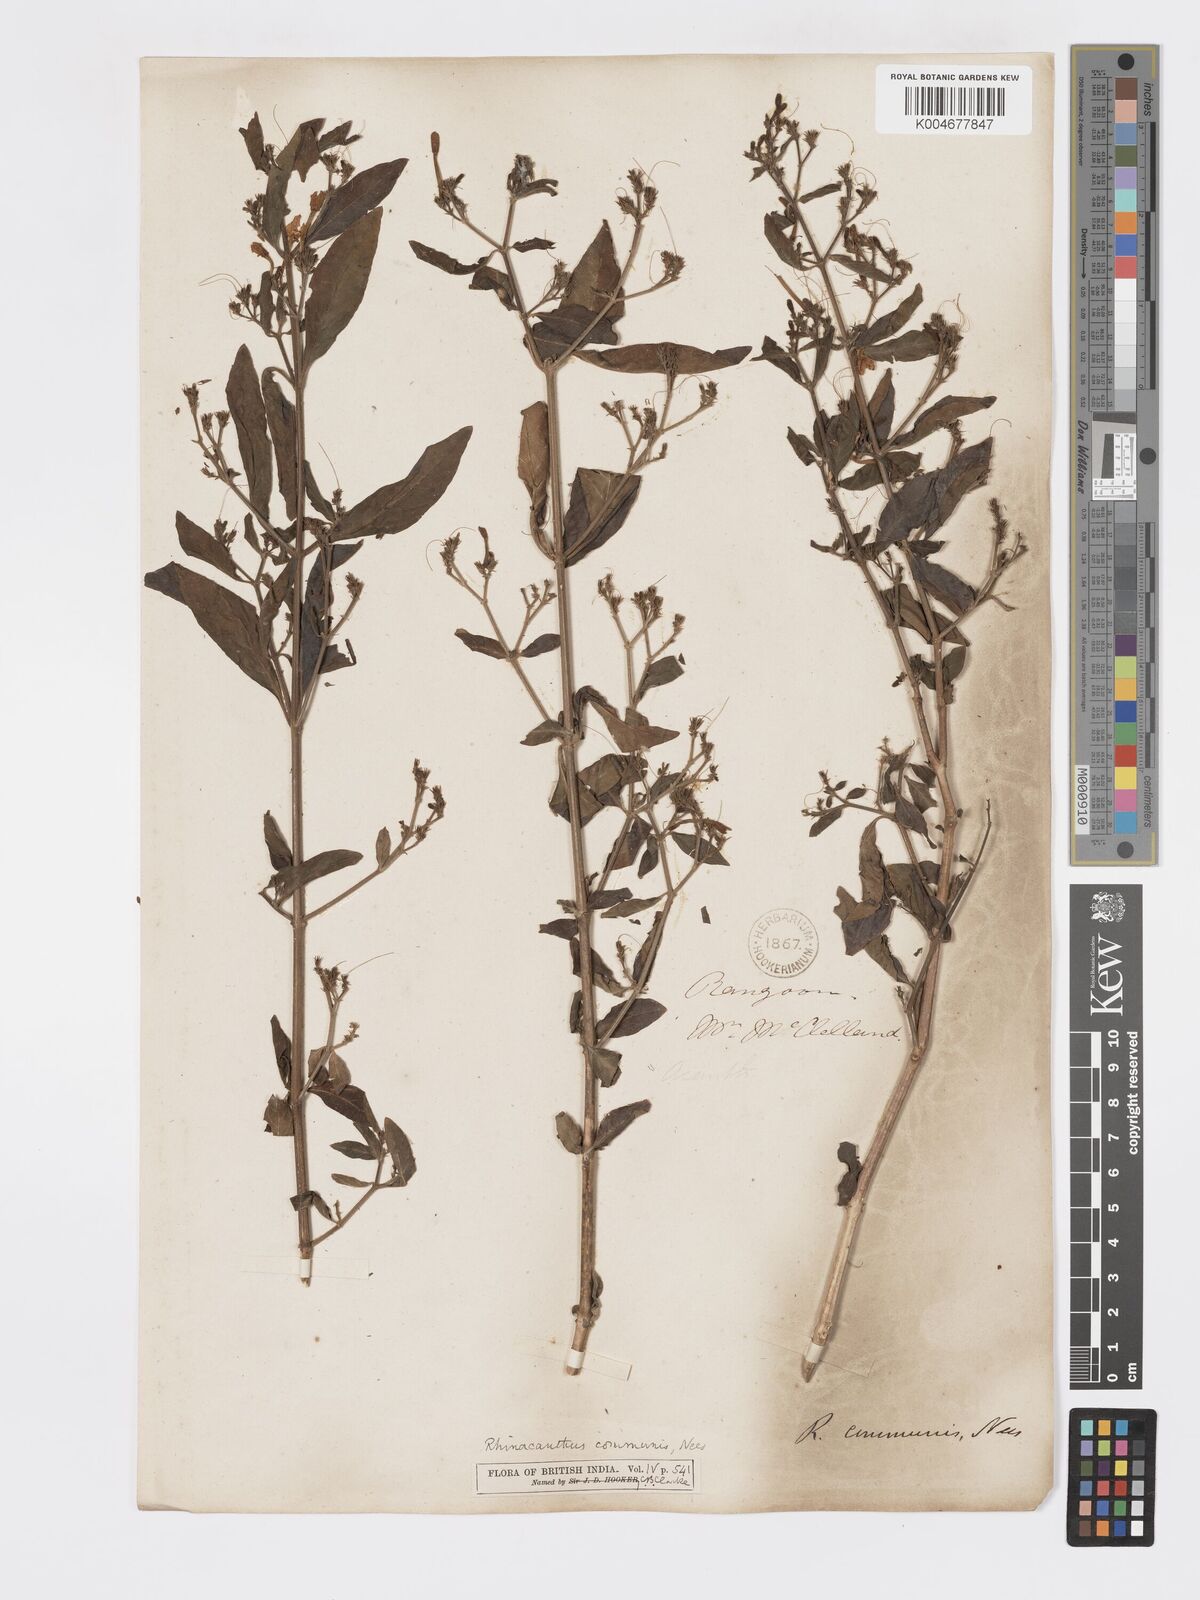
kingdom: Plantae
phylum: Tracheophyta
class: Magnoliopsida
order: Lamiales
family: Acanthaceae
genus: Rhinacanthus
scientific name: Rhinacanthus nasutus
